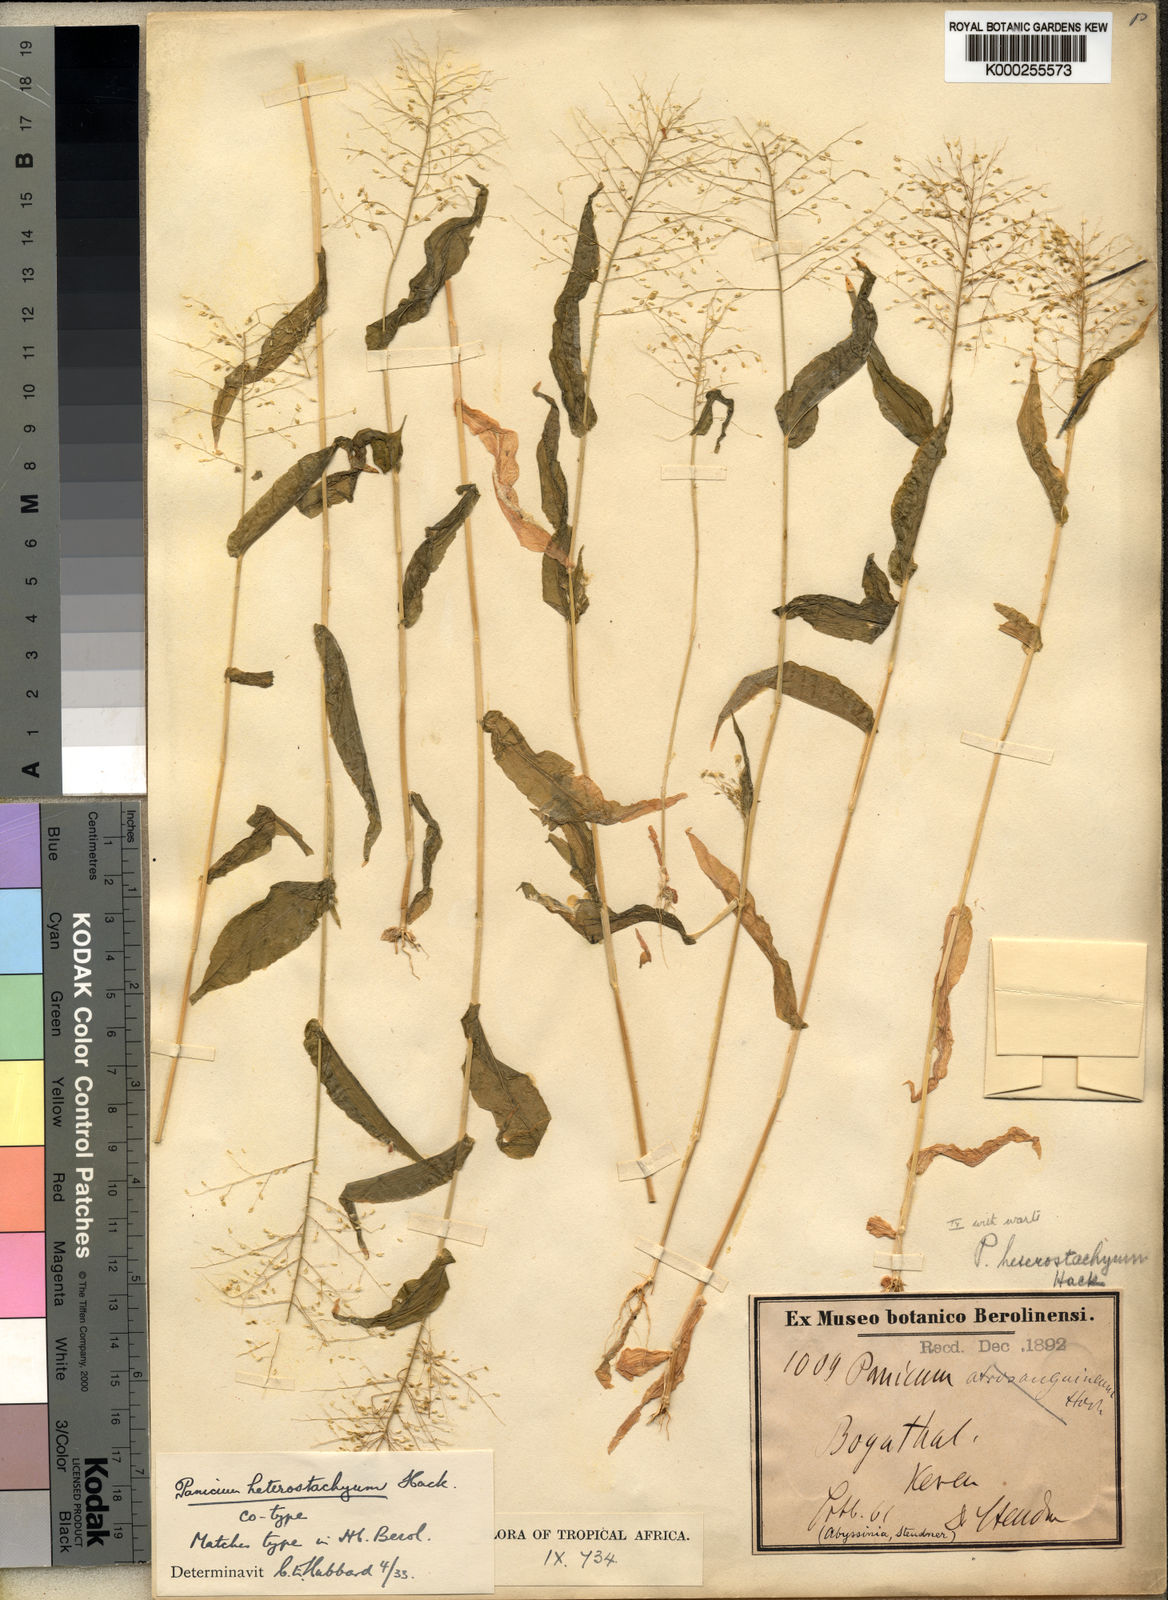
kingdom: Plantae
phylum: Tracheophyta
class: Liliopsida
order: Poales
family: Poaceae
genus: Panicum
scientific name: Panicum hirtum
